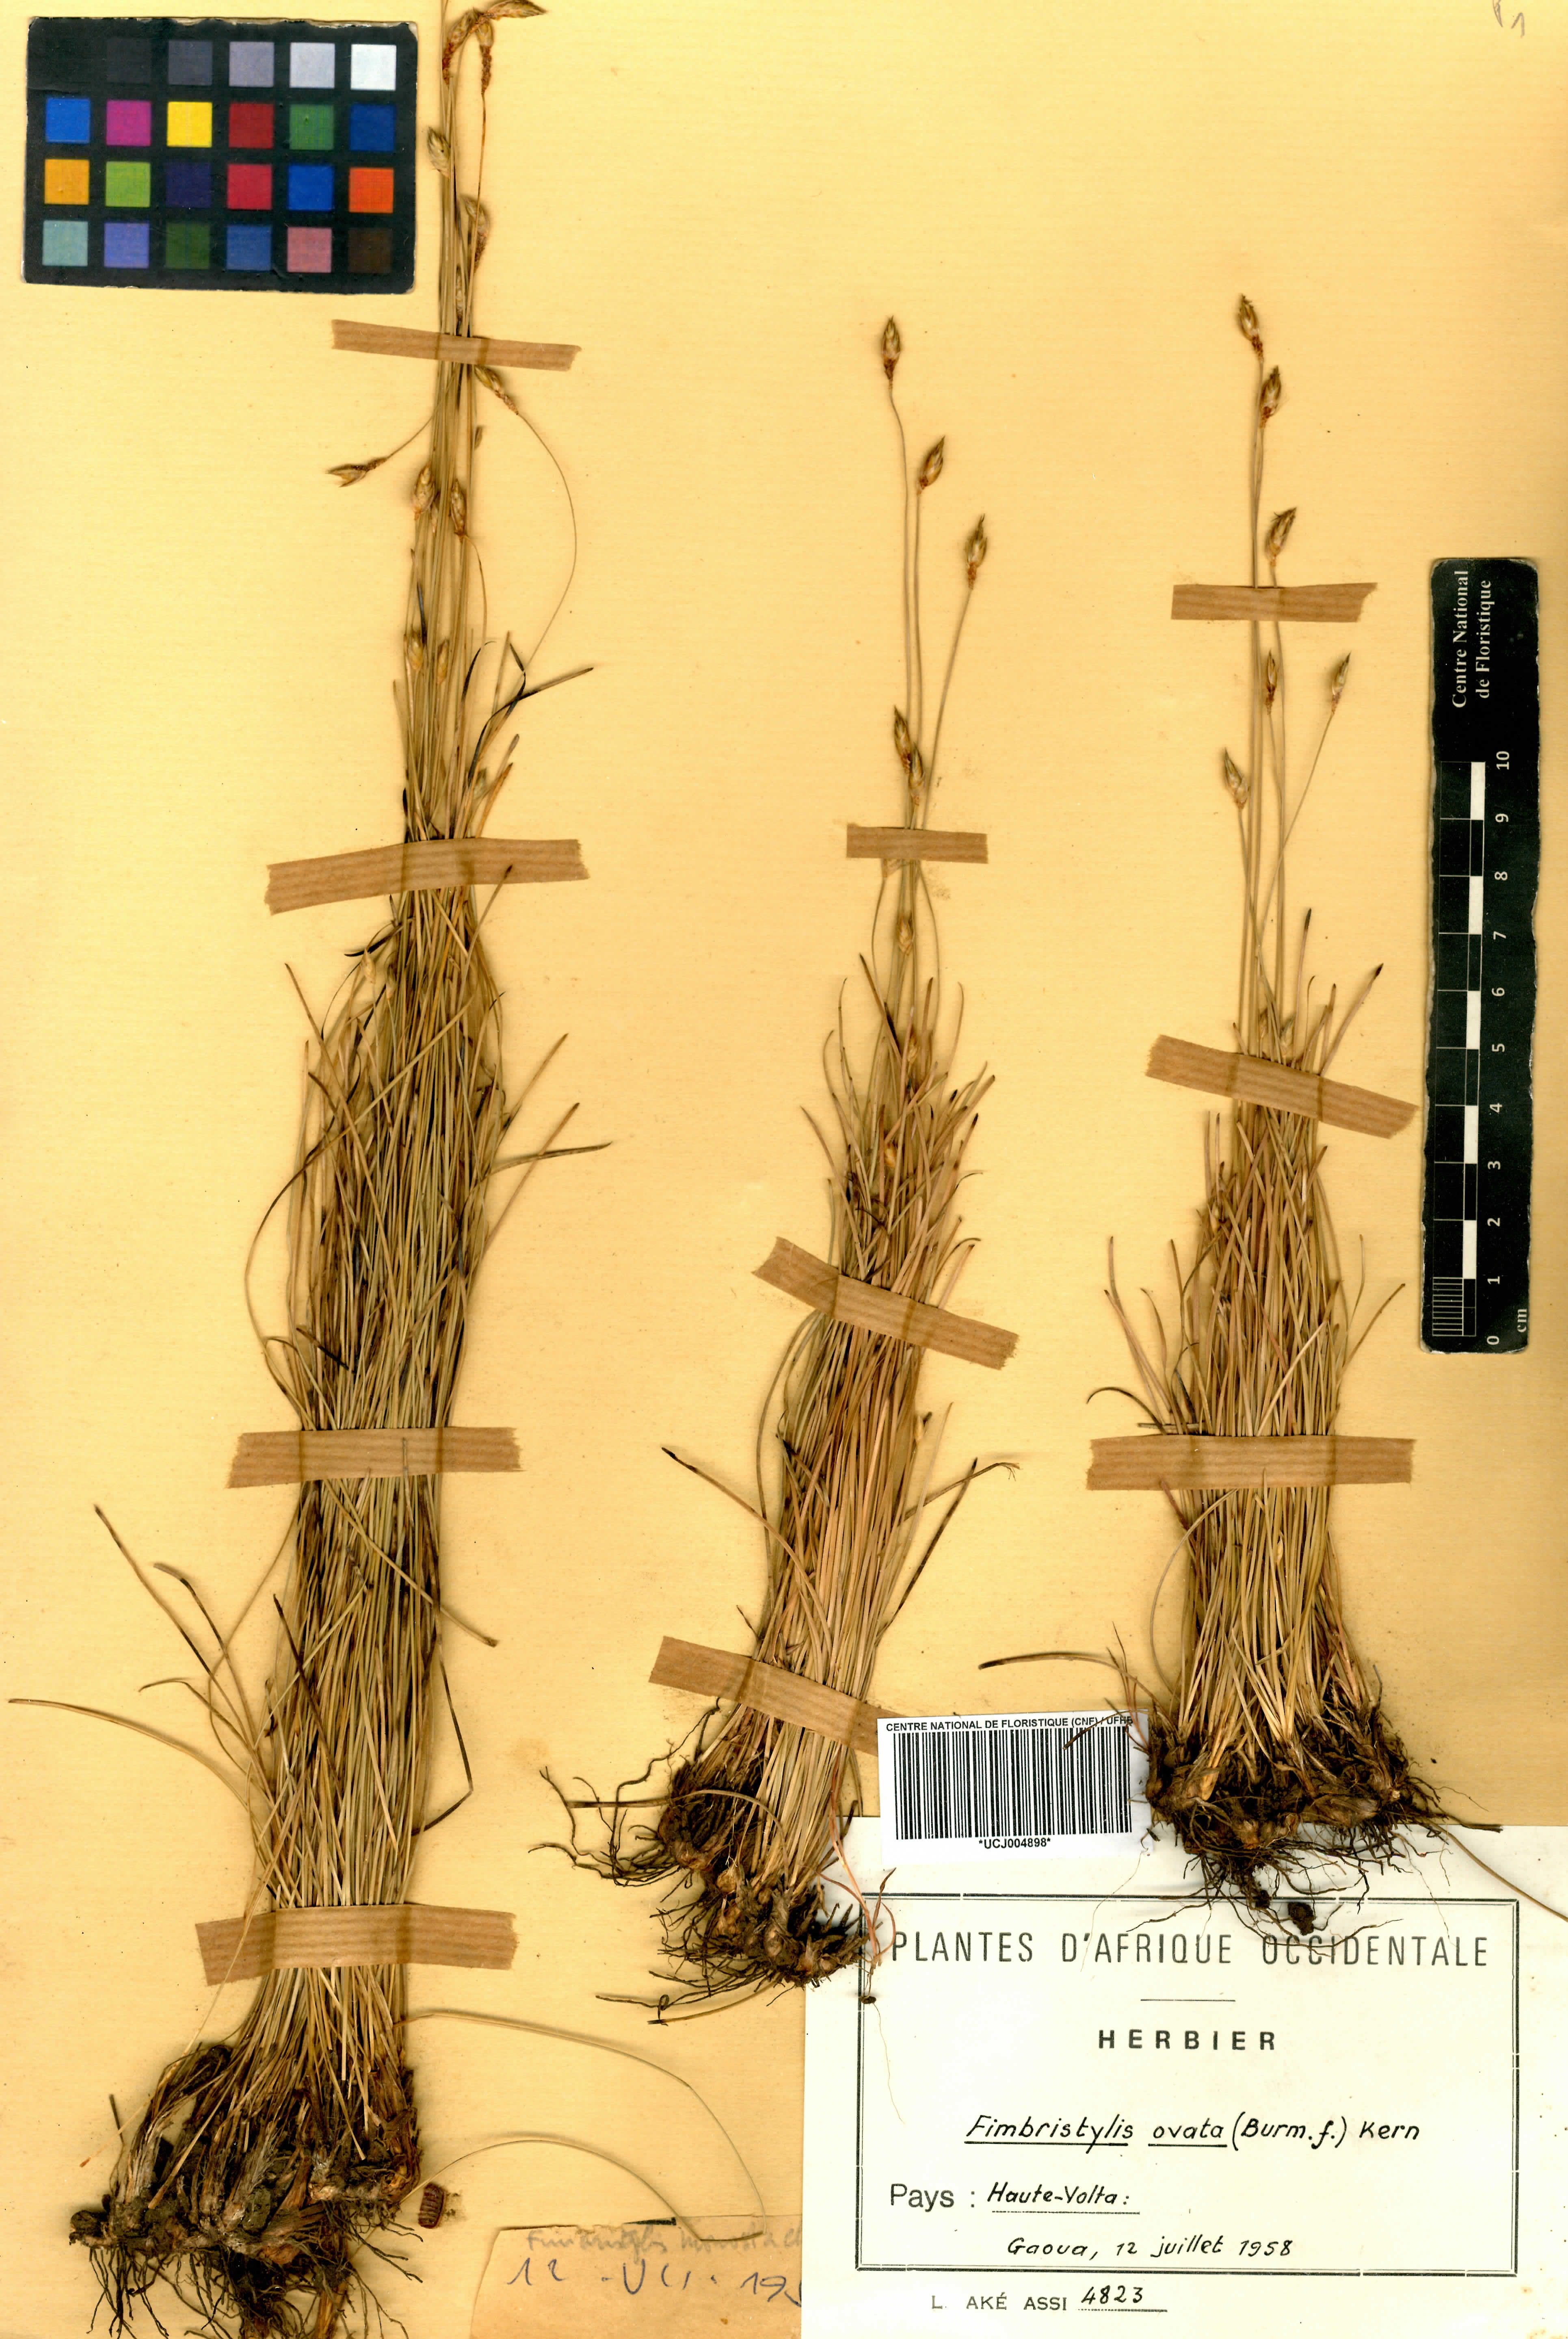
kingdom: Plantae
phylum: Tracheophyta
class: Liliopsida
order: Poales
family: Cyperaceae
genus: Abildgaardia
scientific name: Abildgaardia ovata
